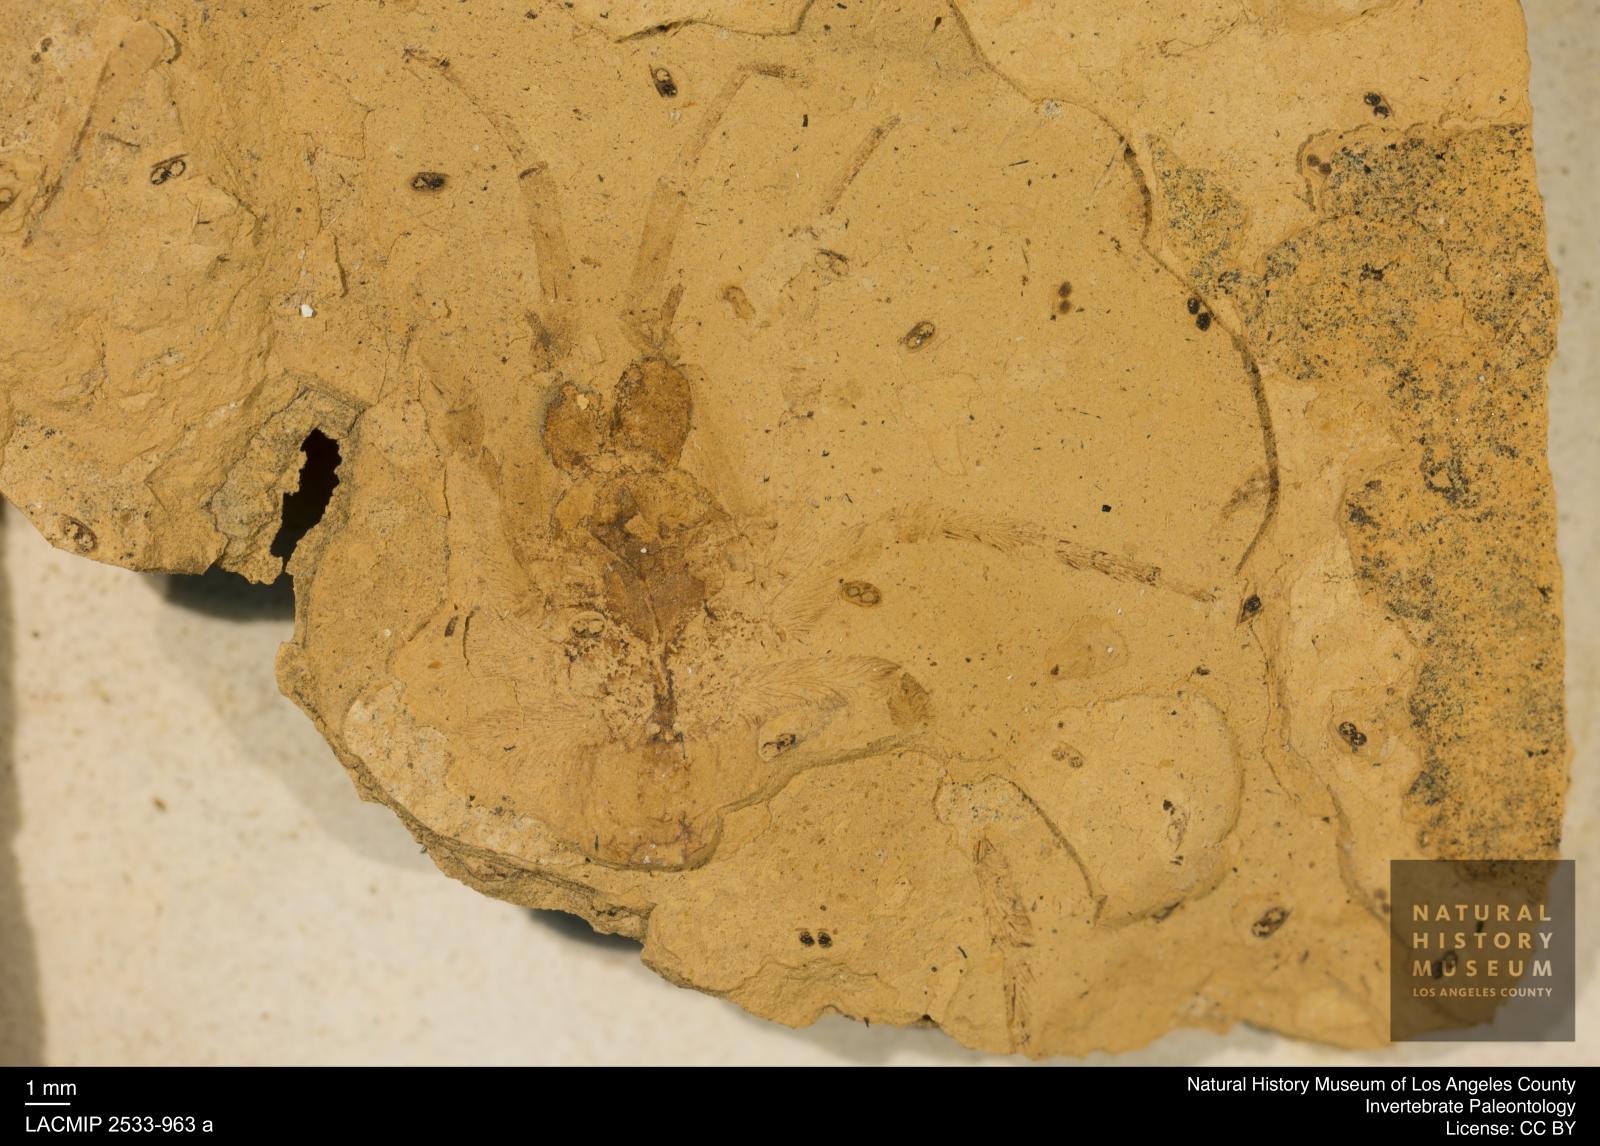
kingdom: Animalia
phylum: Arthropoda
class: Arachnida
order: Araneae
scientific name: Araneae
